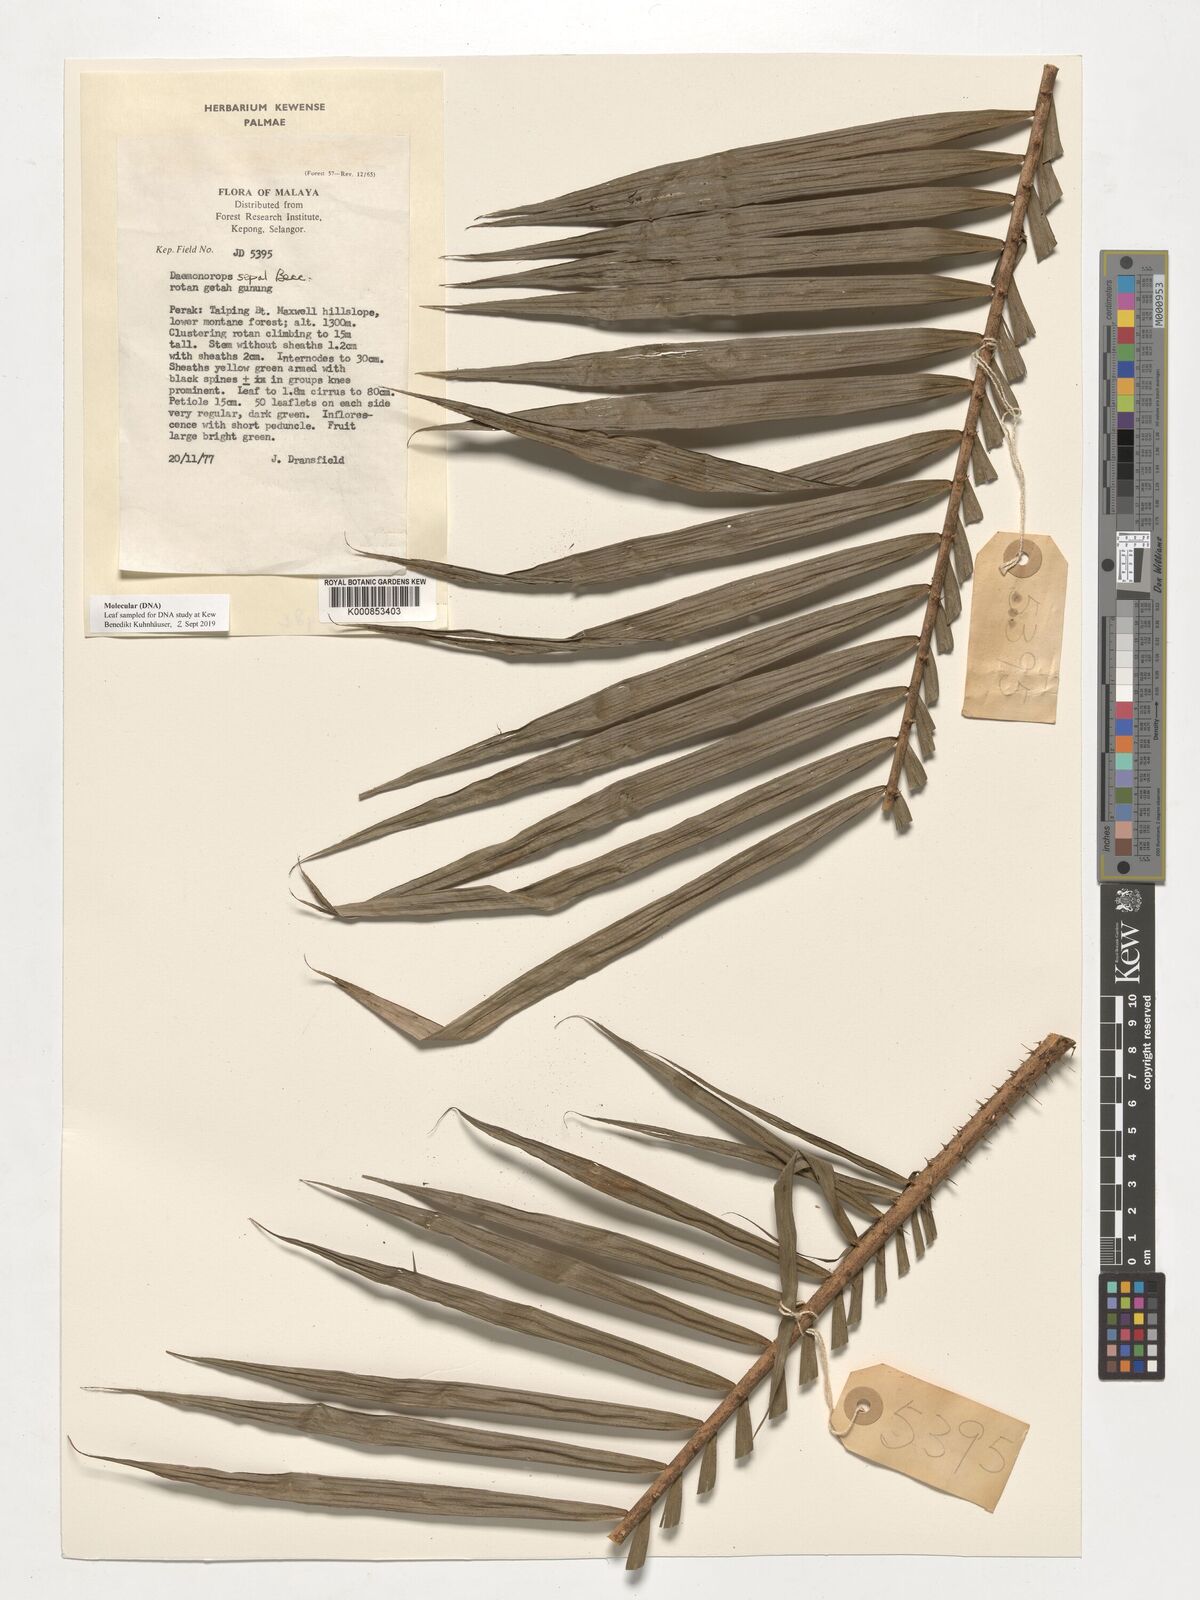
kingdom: Plantae
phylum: Tracheophyta
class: Liliopsida
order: Arecales
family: Arecaceae
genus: Calamus
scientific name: Calamus melanochaetes
